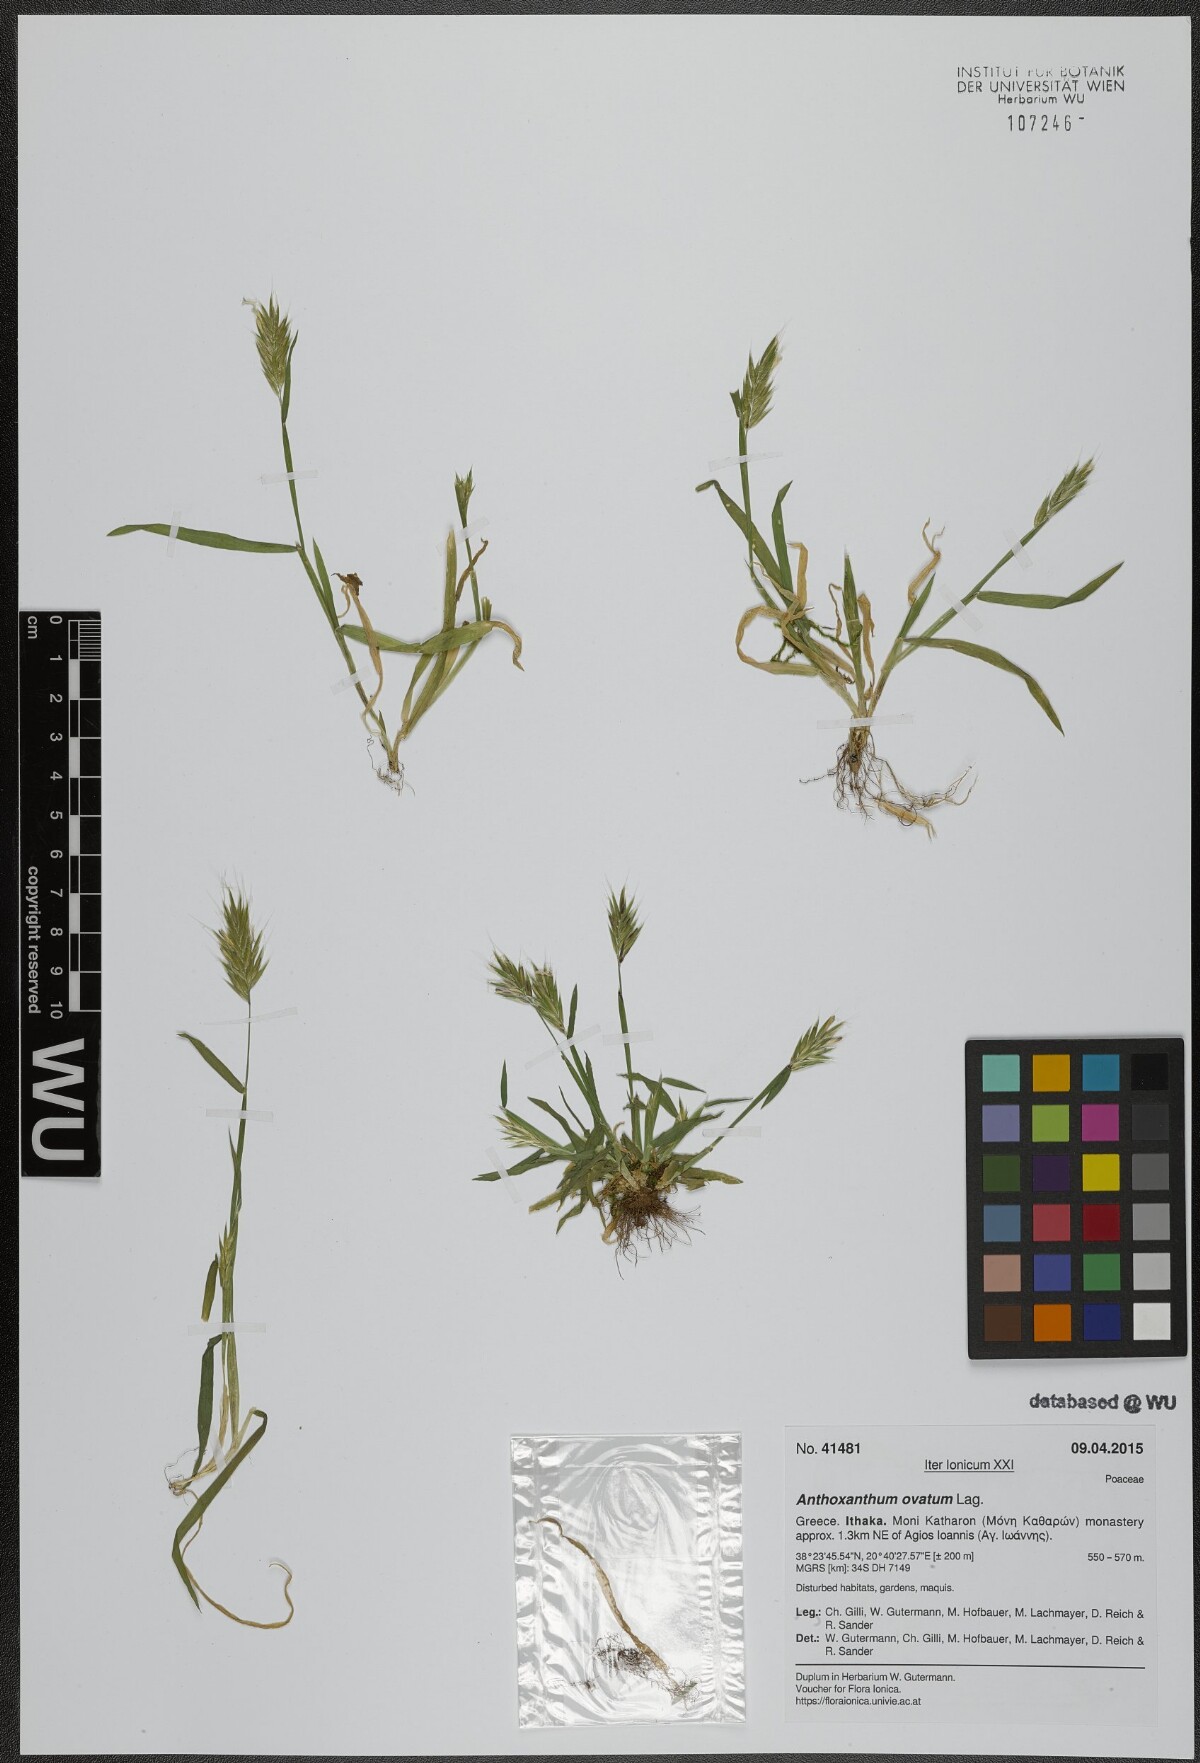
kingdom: Plantae
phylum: Tracheophyta
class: Liliopsida
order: Poales
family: Poaceae
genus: Anthoxanthum
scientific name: Anthoxanthum ovatum
